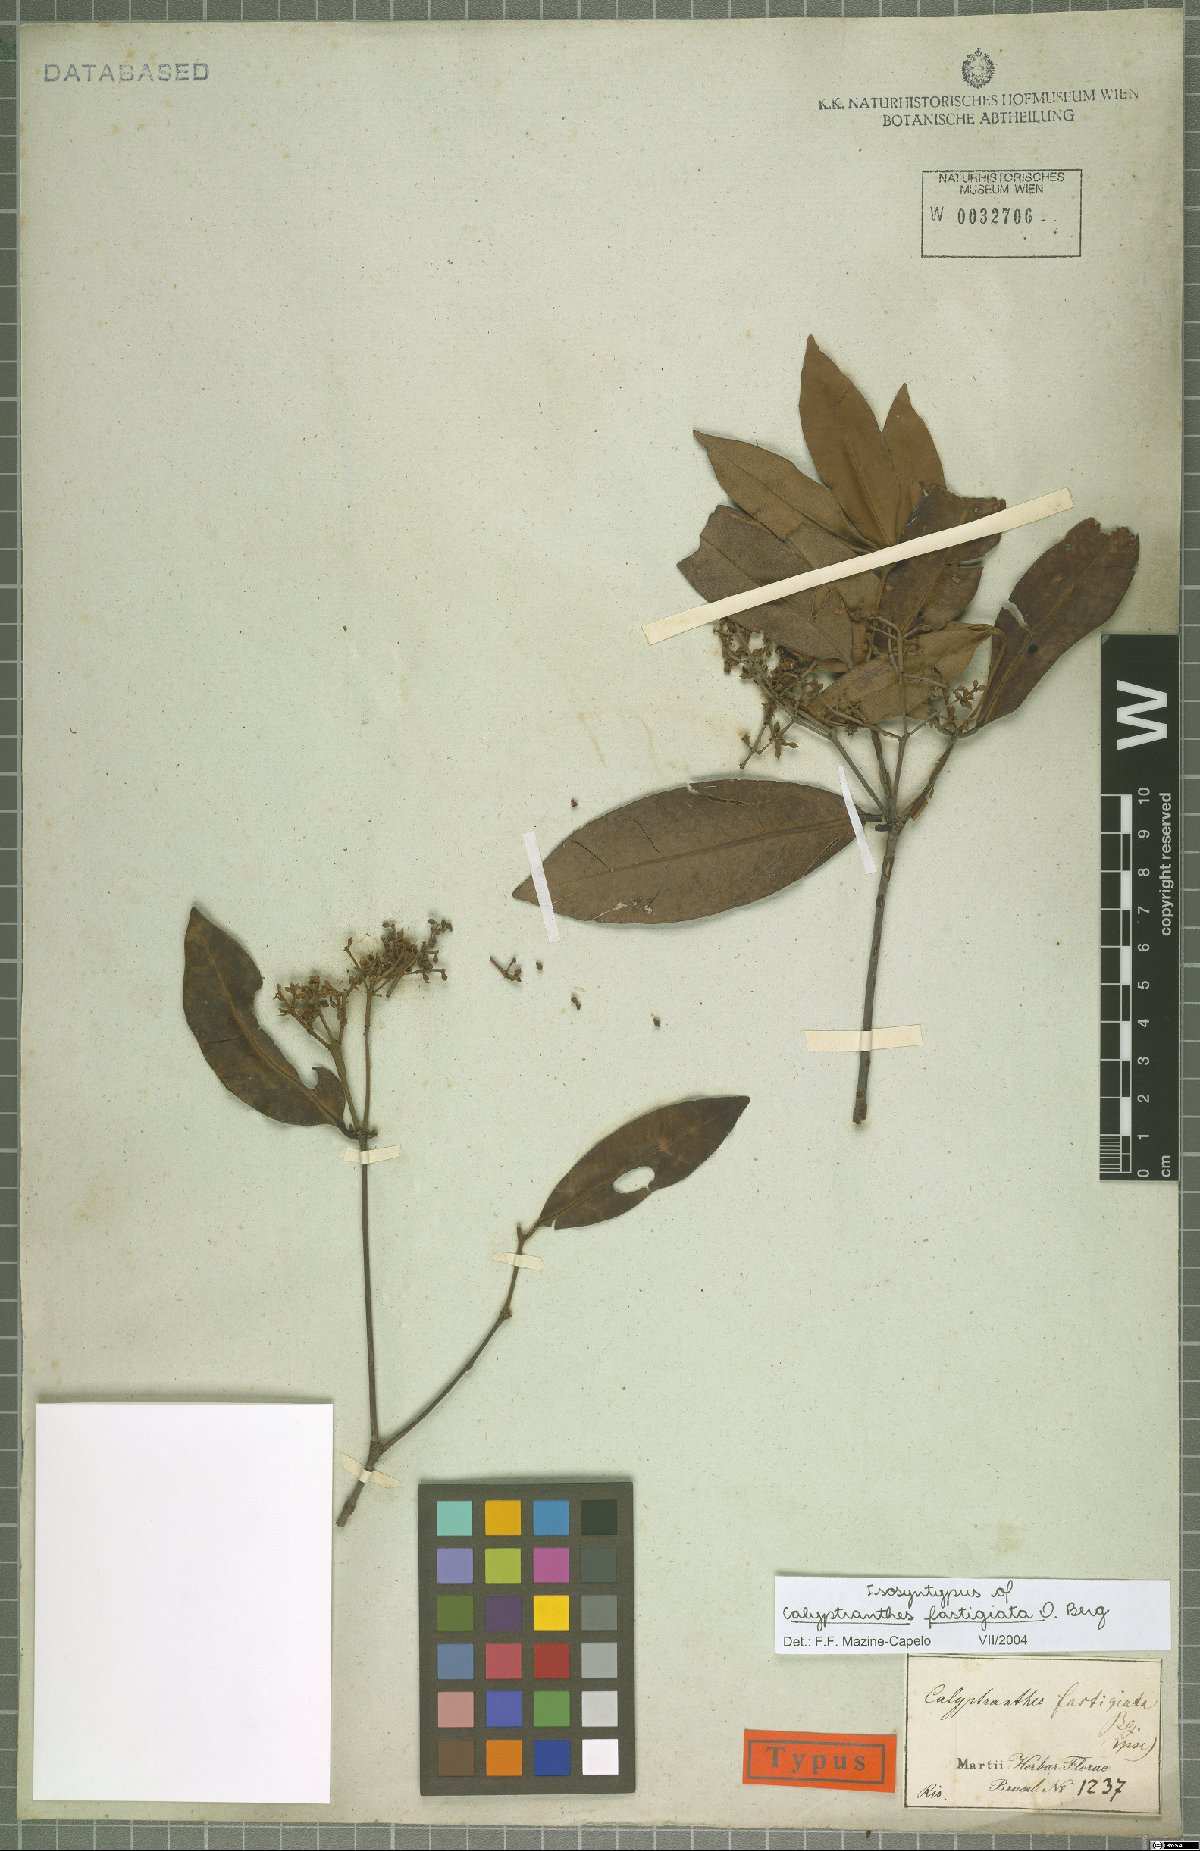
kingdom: Plantae
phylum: Tracheophyta
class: Magnoliopsida
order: Myrtales
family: Myrtaceae
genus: Myrcia
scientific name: Myrcia loranthifolia
